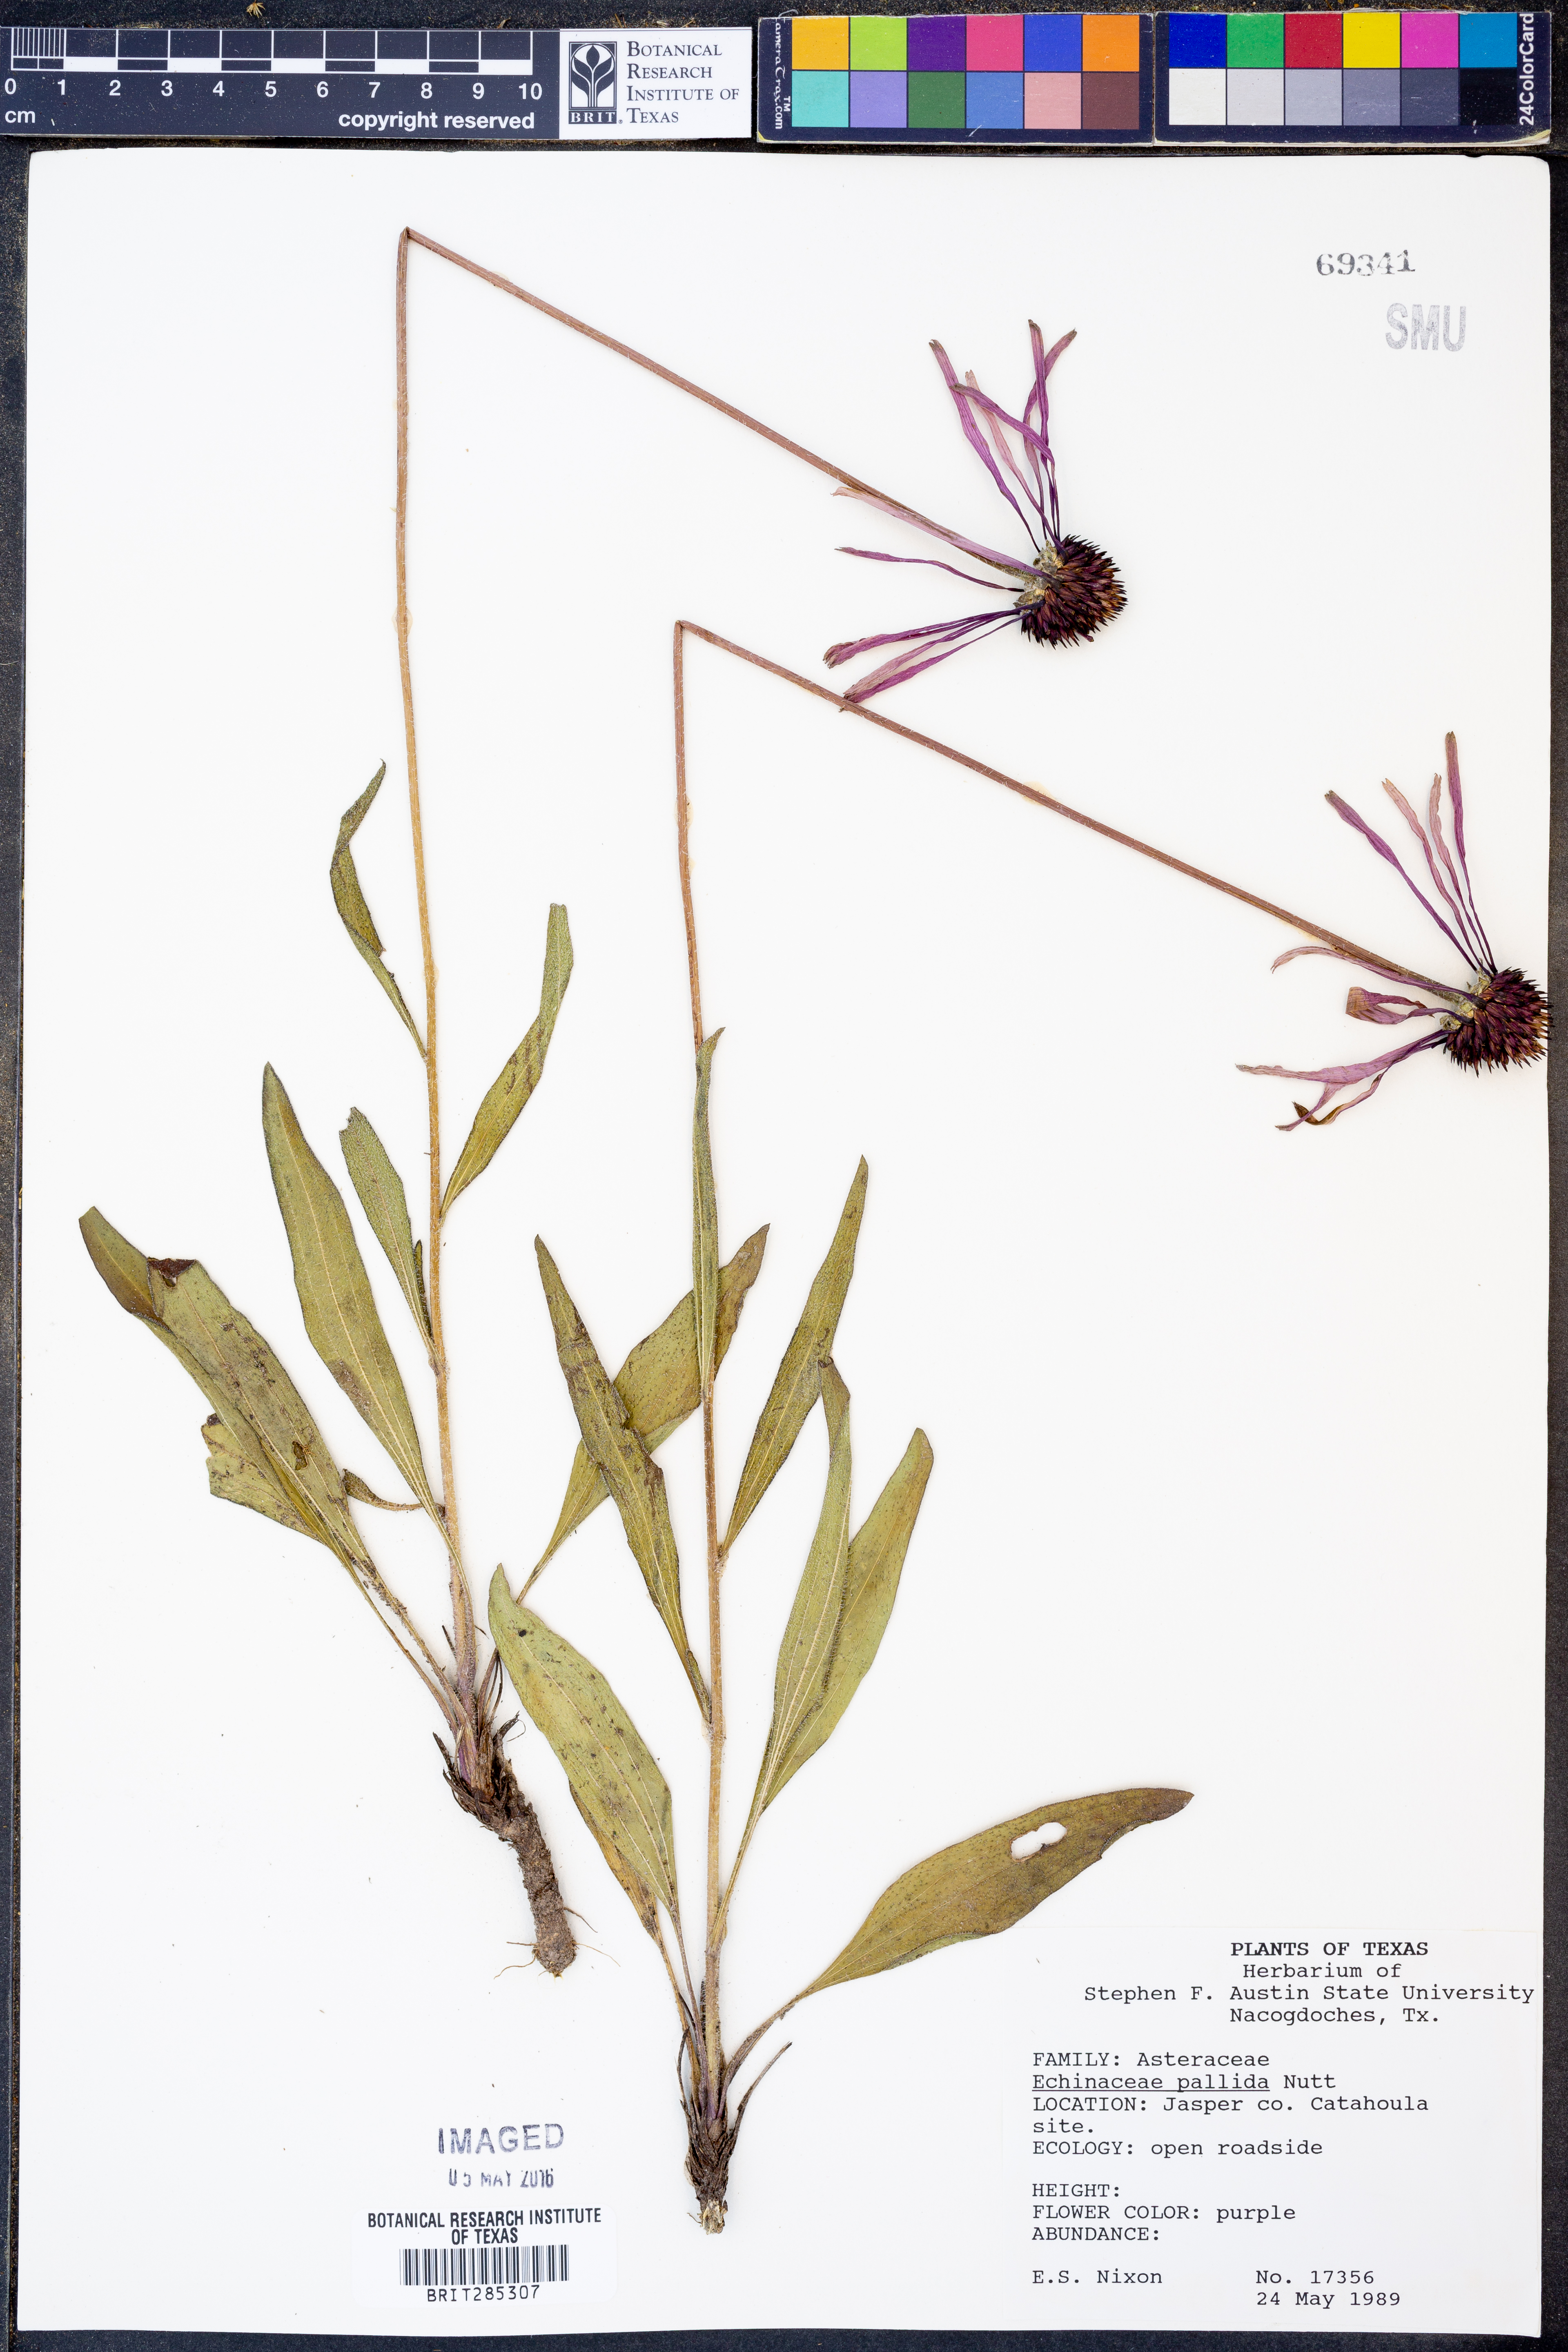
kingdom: Plantae
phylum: Tracheophyta
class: Magnoliopsida
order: Asterales
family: Asteraceae
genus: Echinacea
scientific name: Echinacea pallida
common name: Pale echinacea
